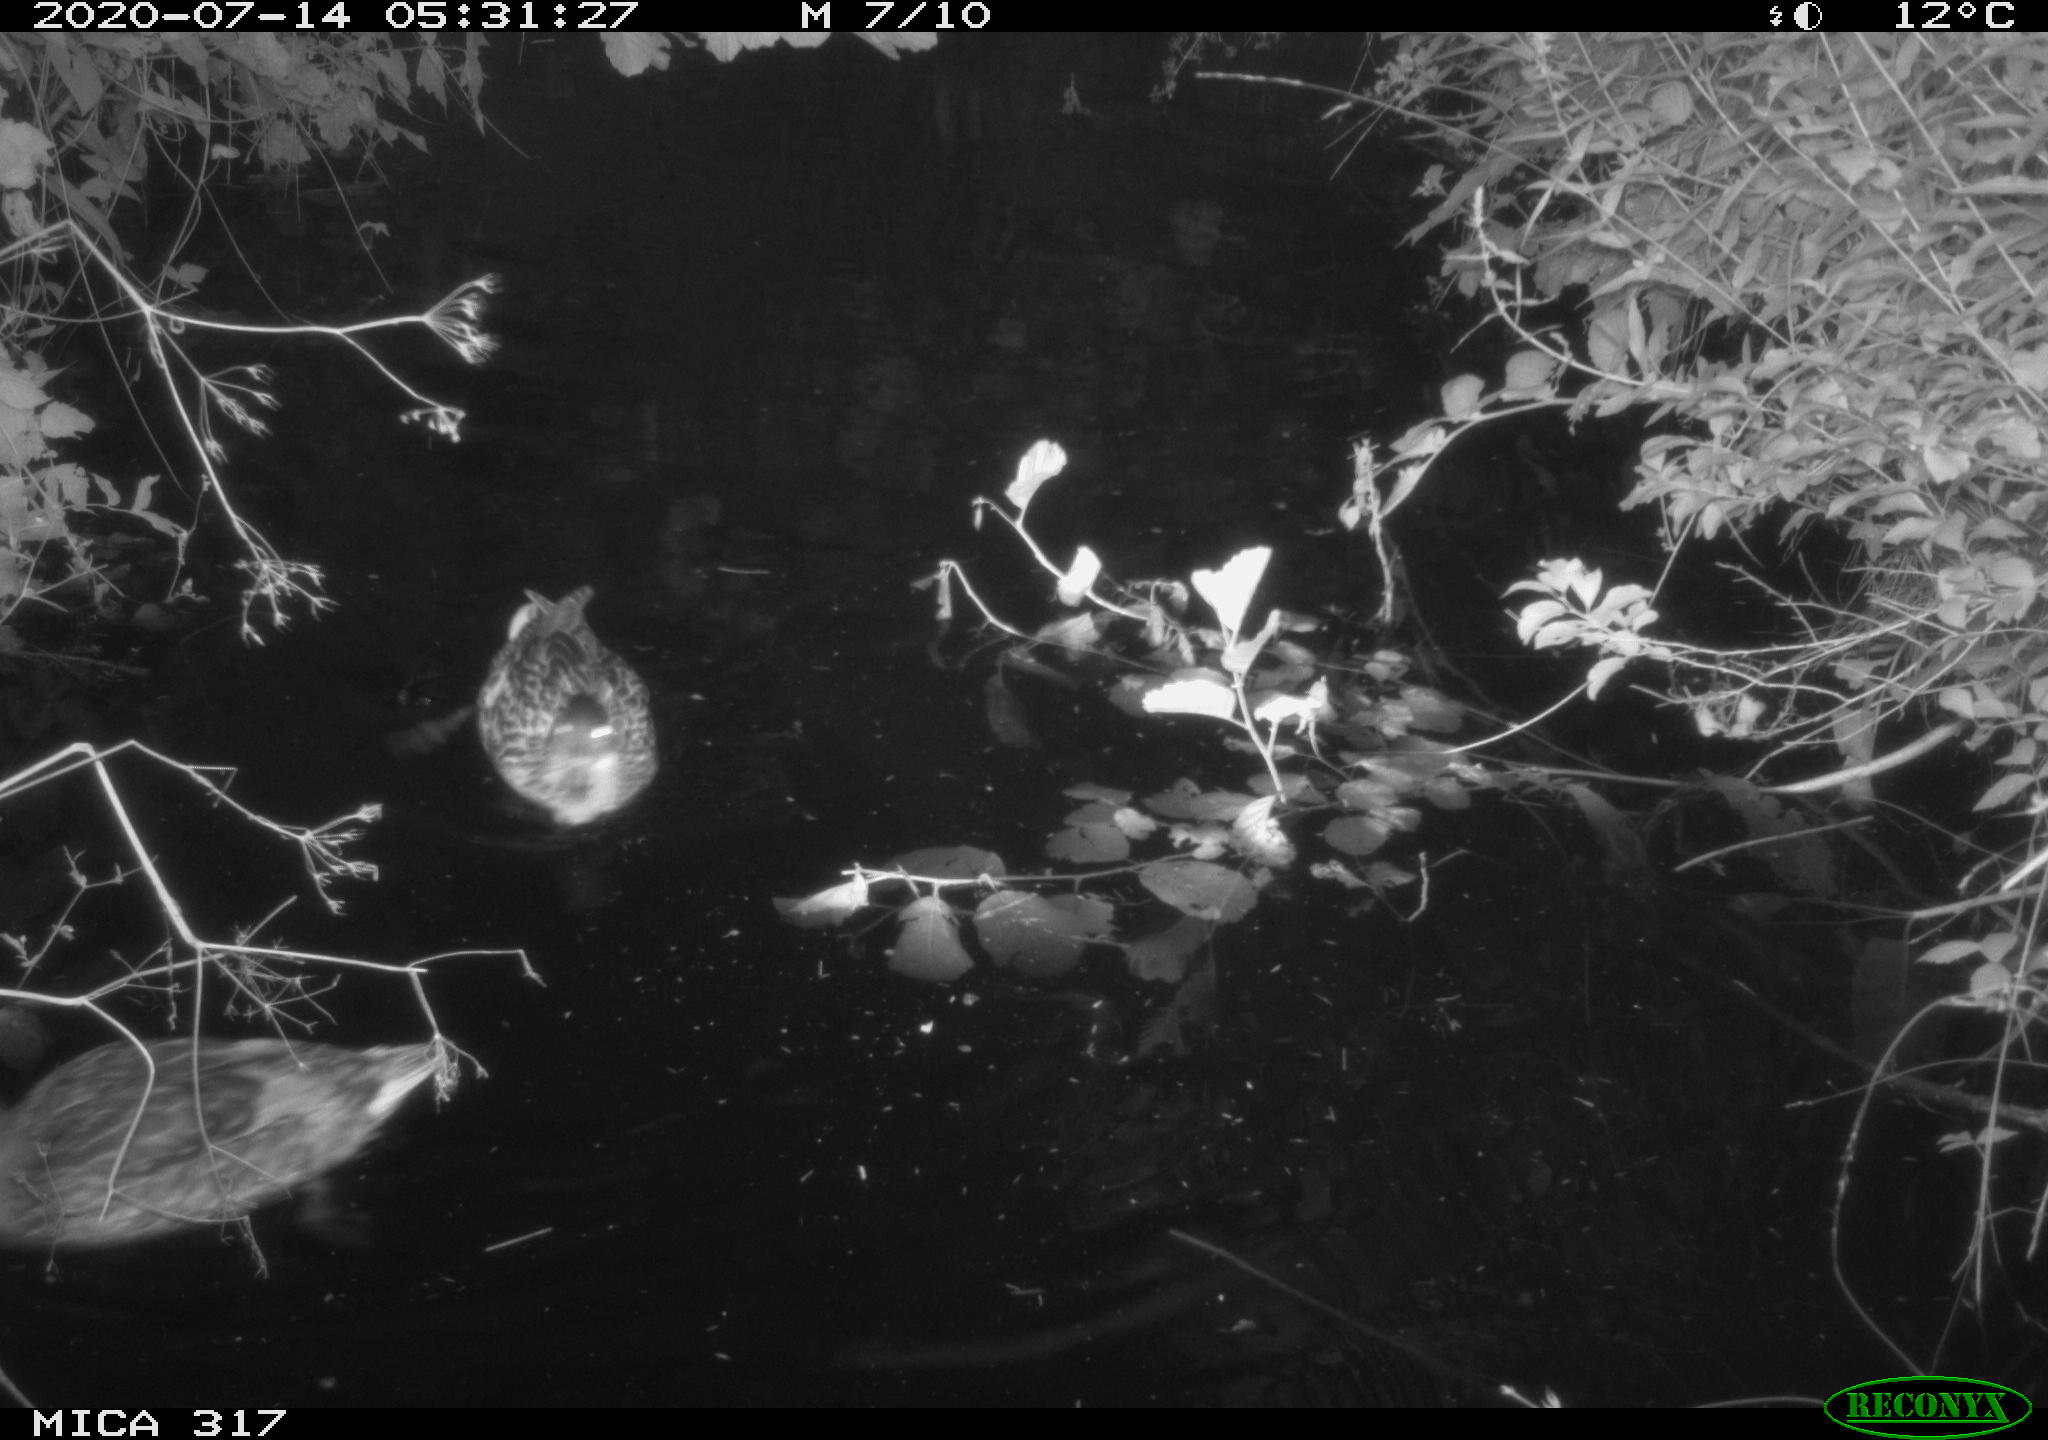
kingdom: Animalia
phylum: Chordata
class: Aves
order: Anseriformes
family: Anatidae
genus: Anas
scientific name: Anas platyrhynchos
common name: Mallard
